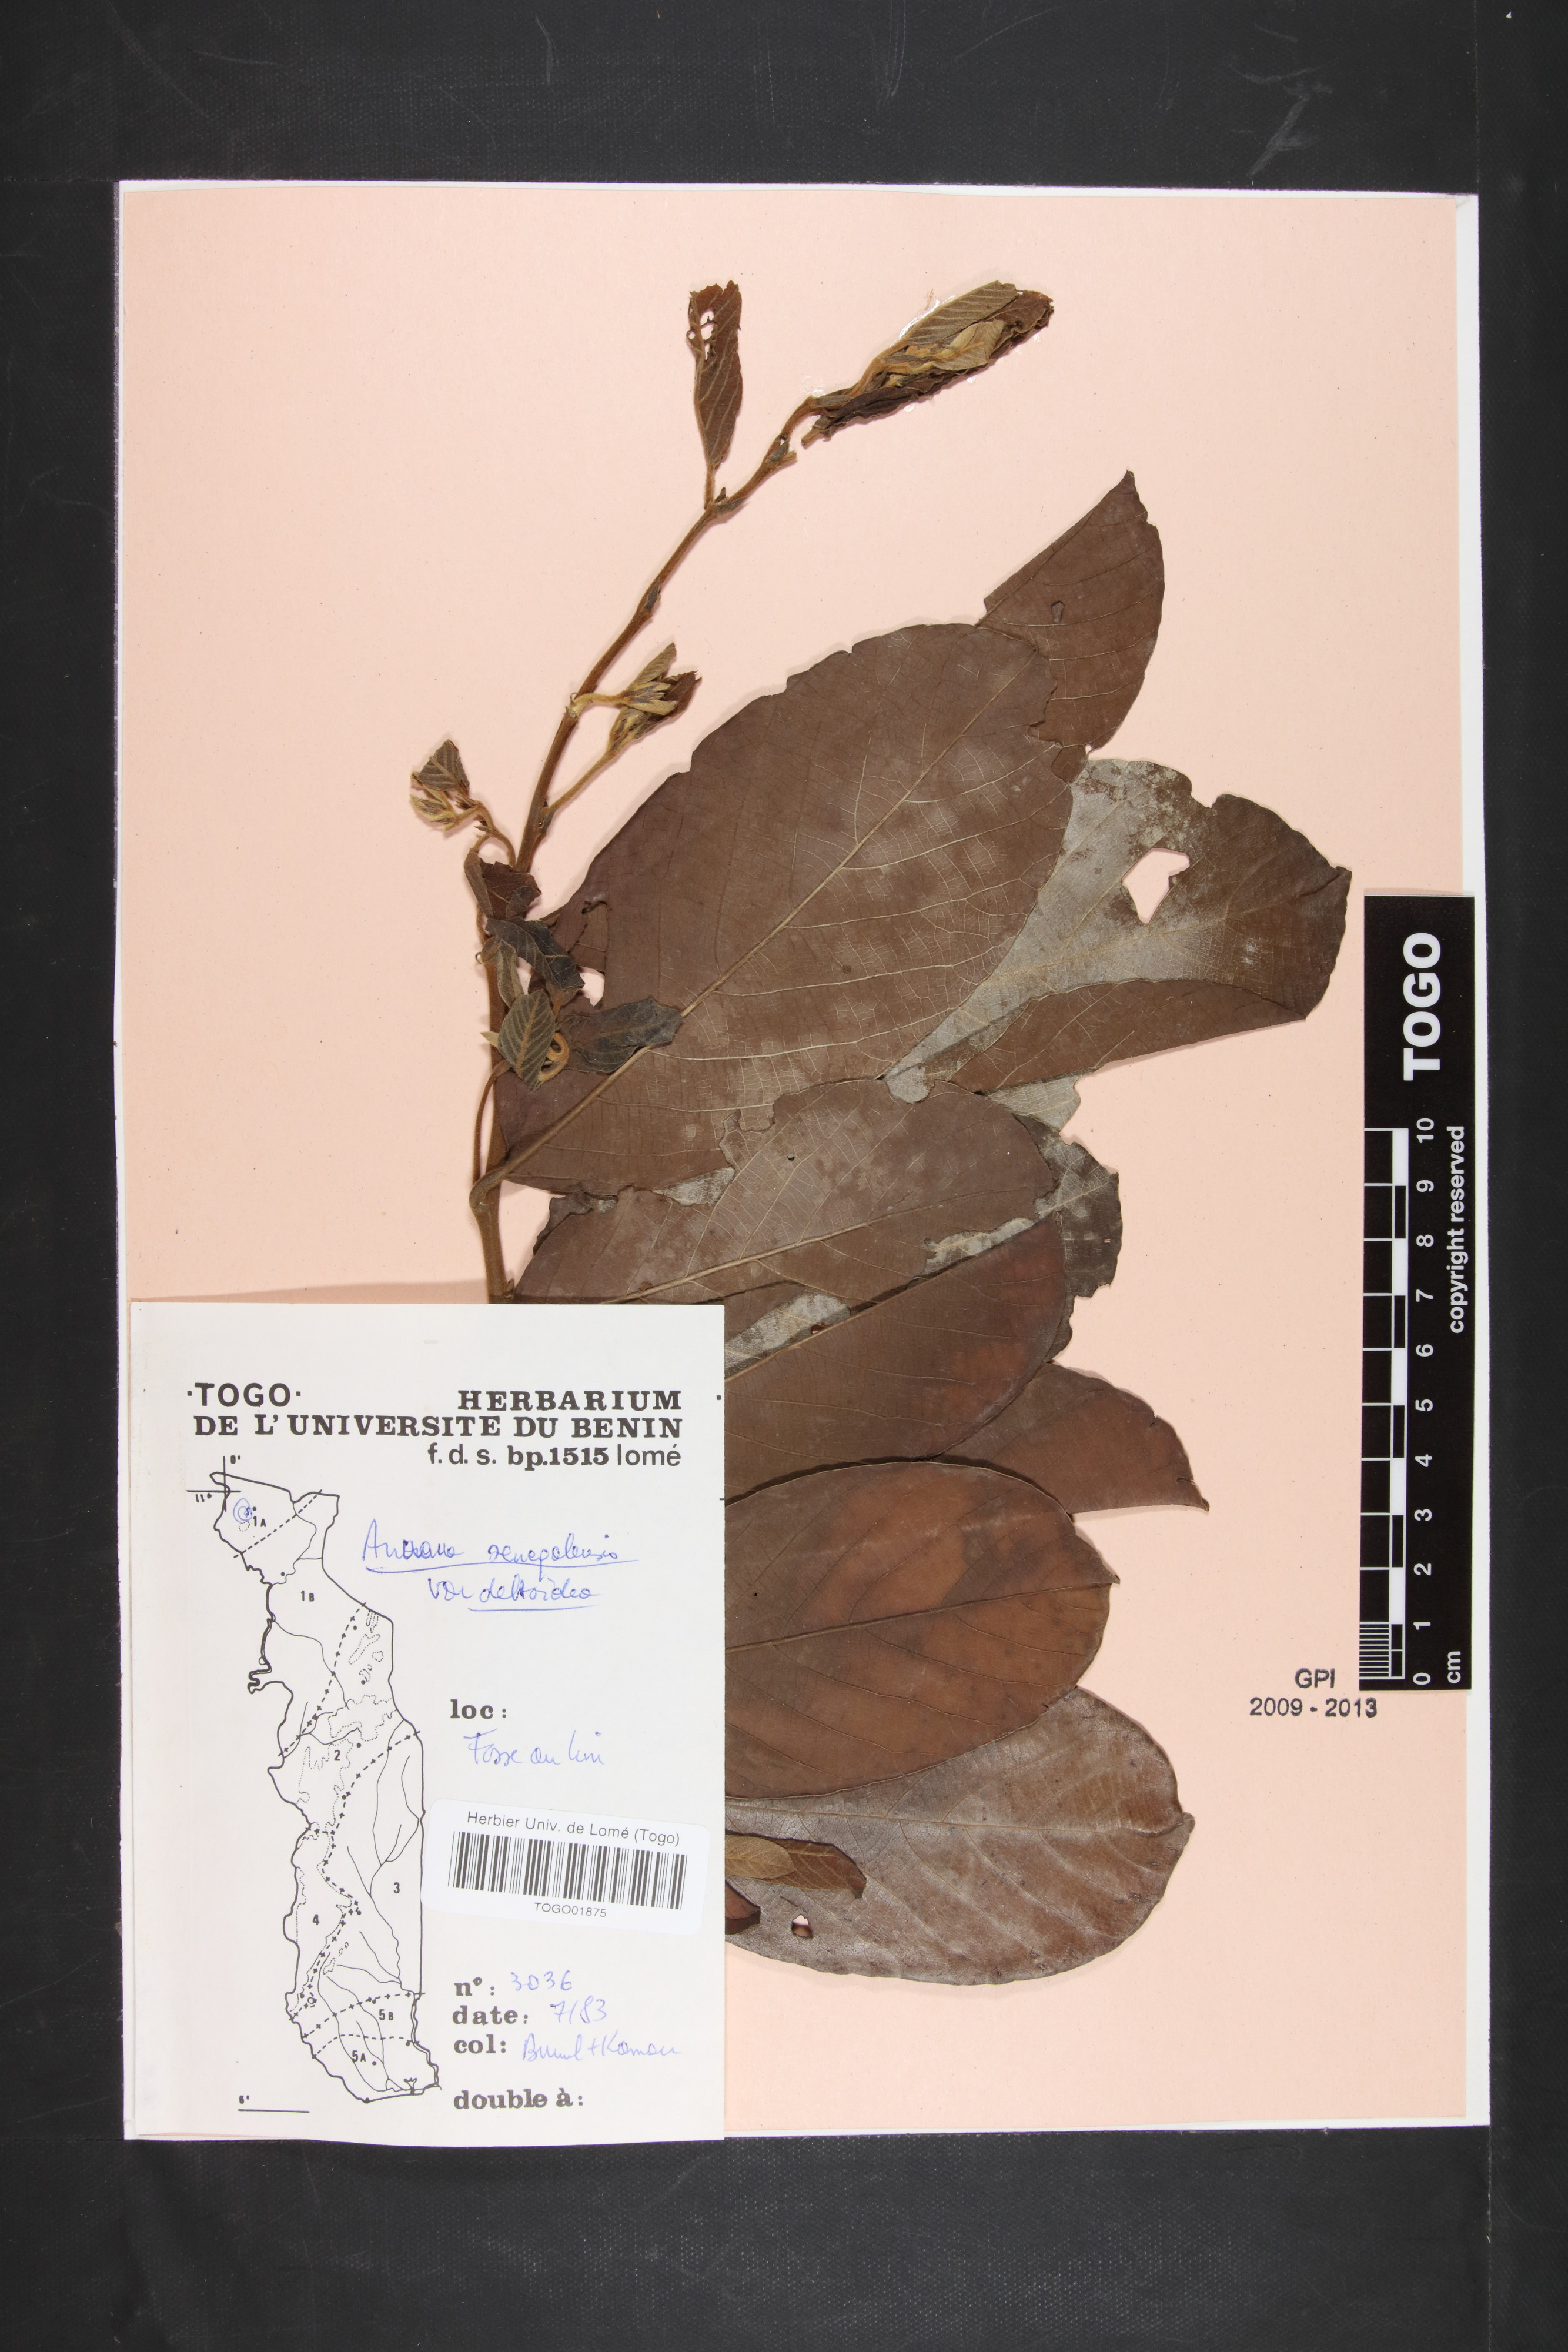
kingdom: Plantae
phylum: Tracheophyta
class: Magnoliopsida
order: Magnoliales
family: Annonaceae
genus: Annona
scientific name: Annona senegalensis
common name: Wild custard-apple
